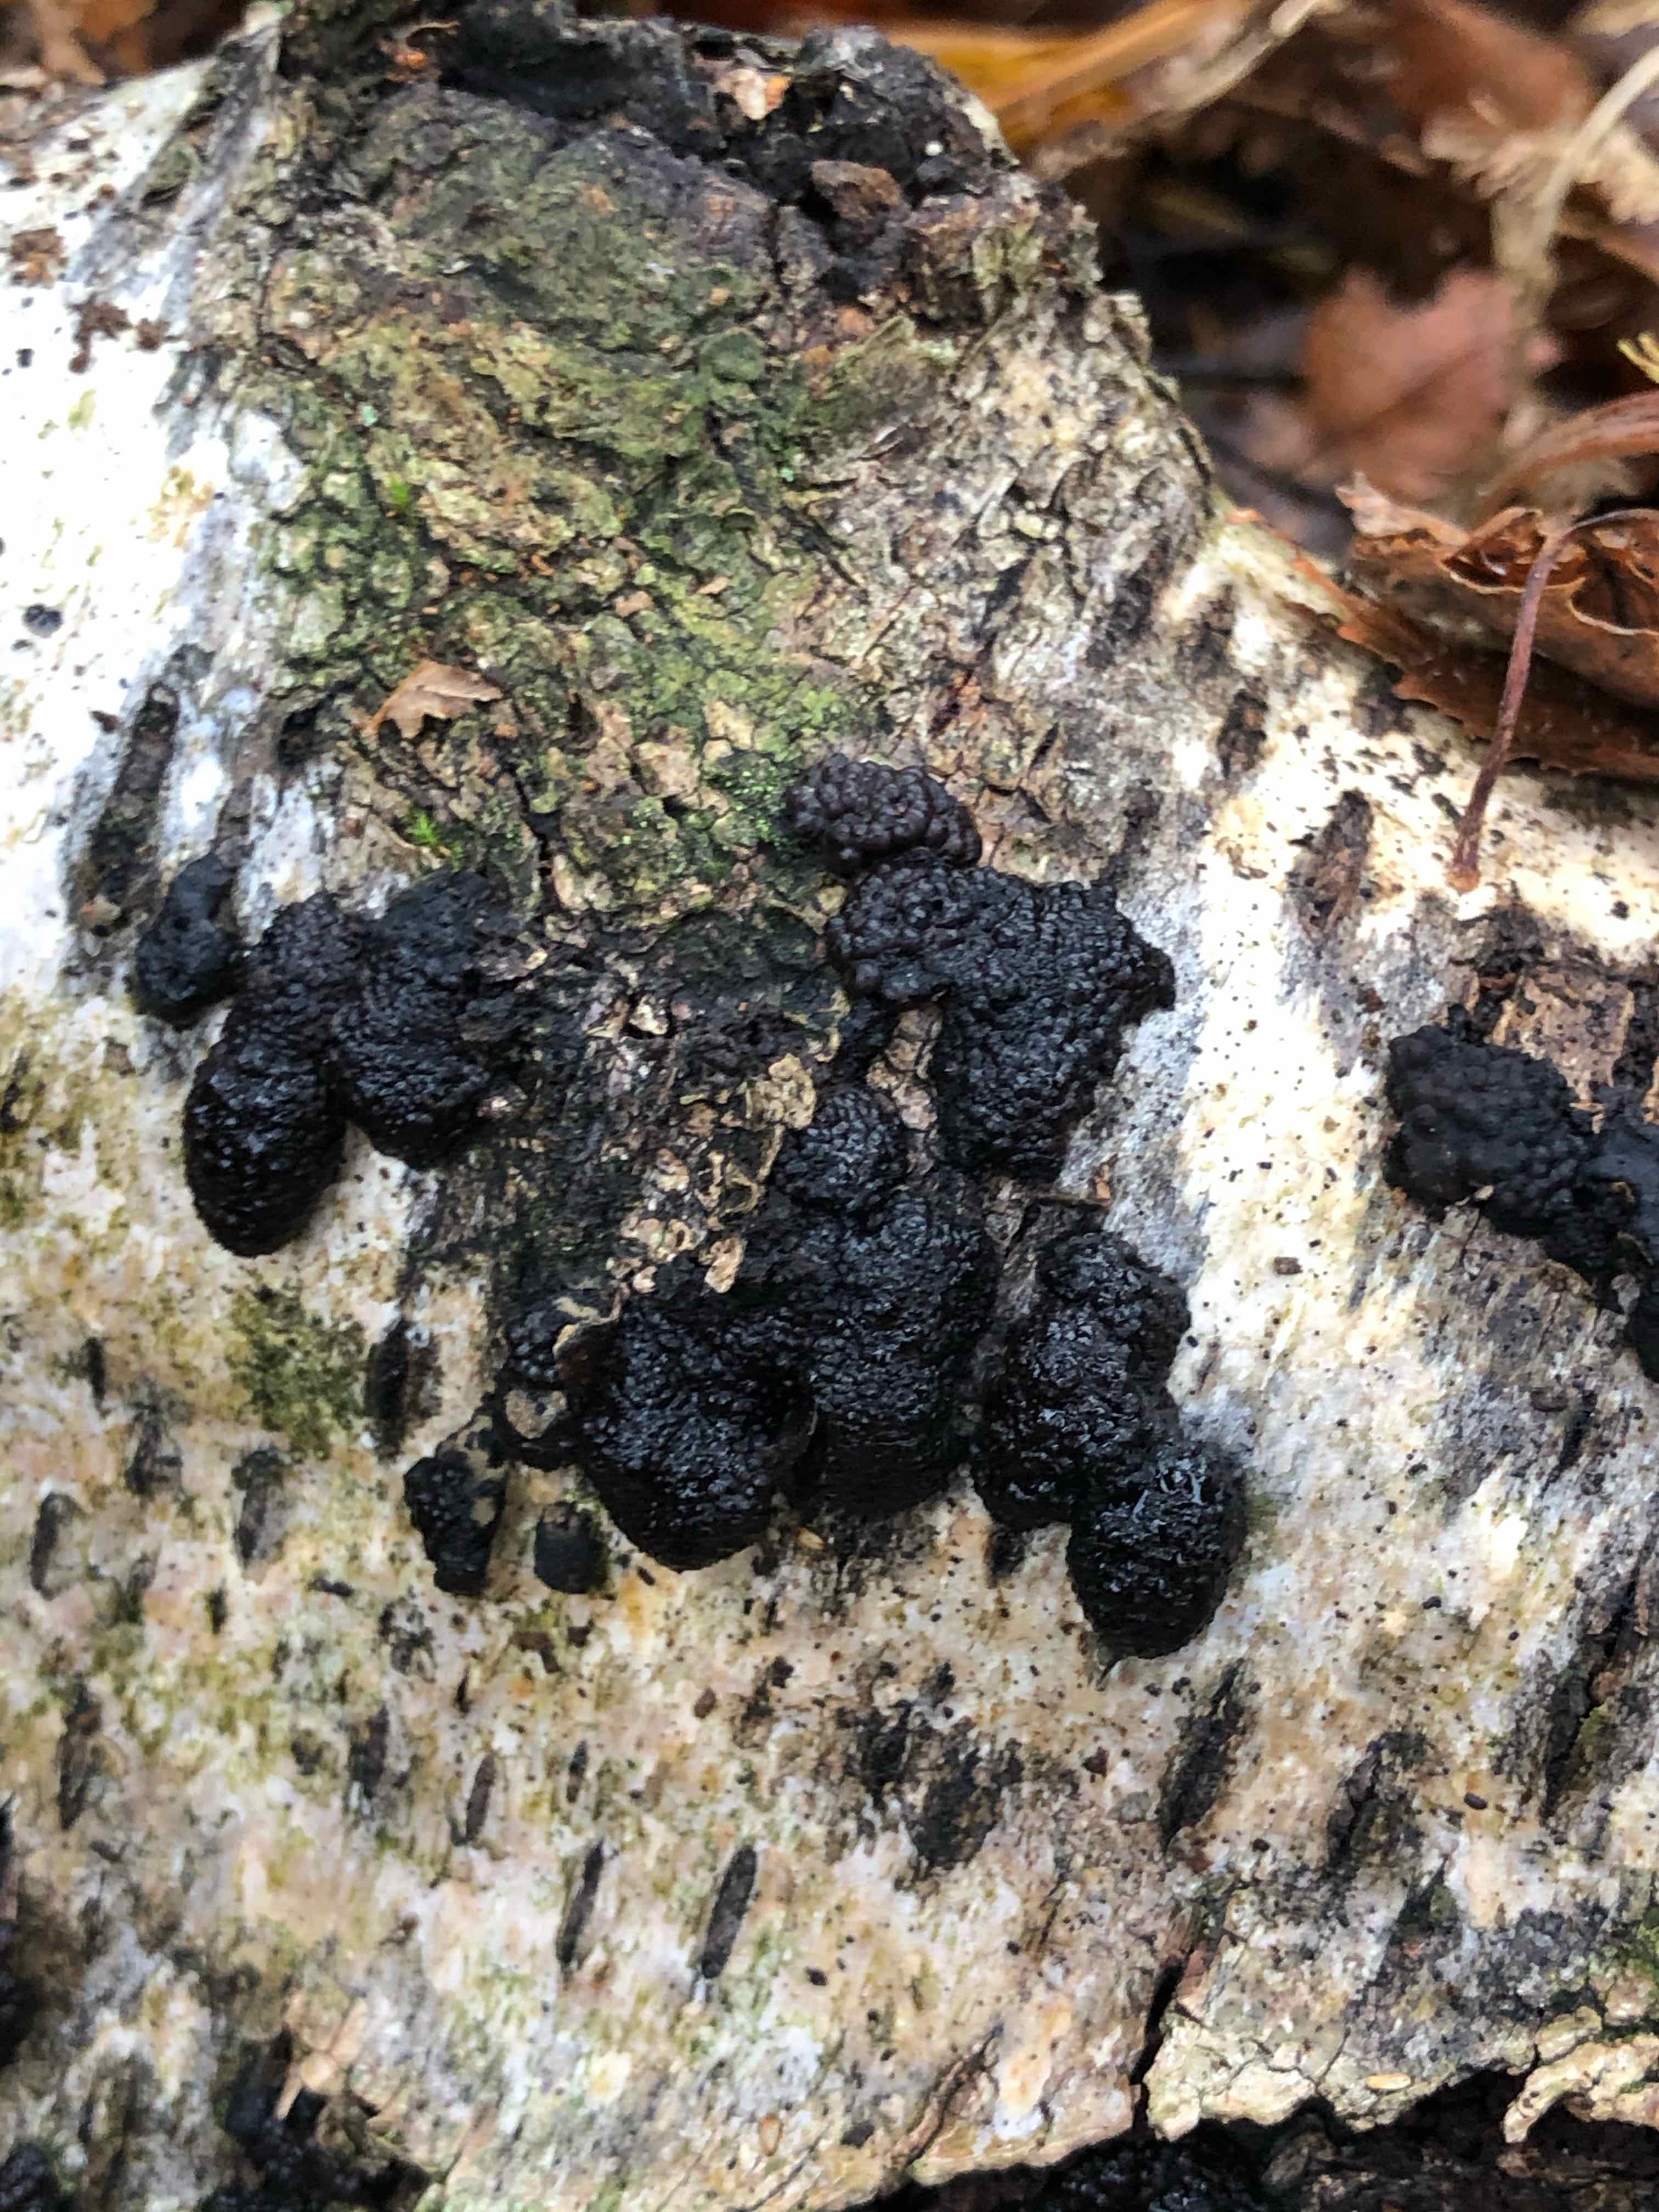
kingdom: Fungi
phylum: Ascomycota
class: Sordariomycetes
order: Xylariales
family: Hypoxylaceae
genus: Jackrogersella
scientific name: Jackrogersella multiformis
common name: foranderlig kulbær
